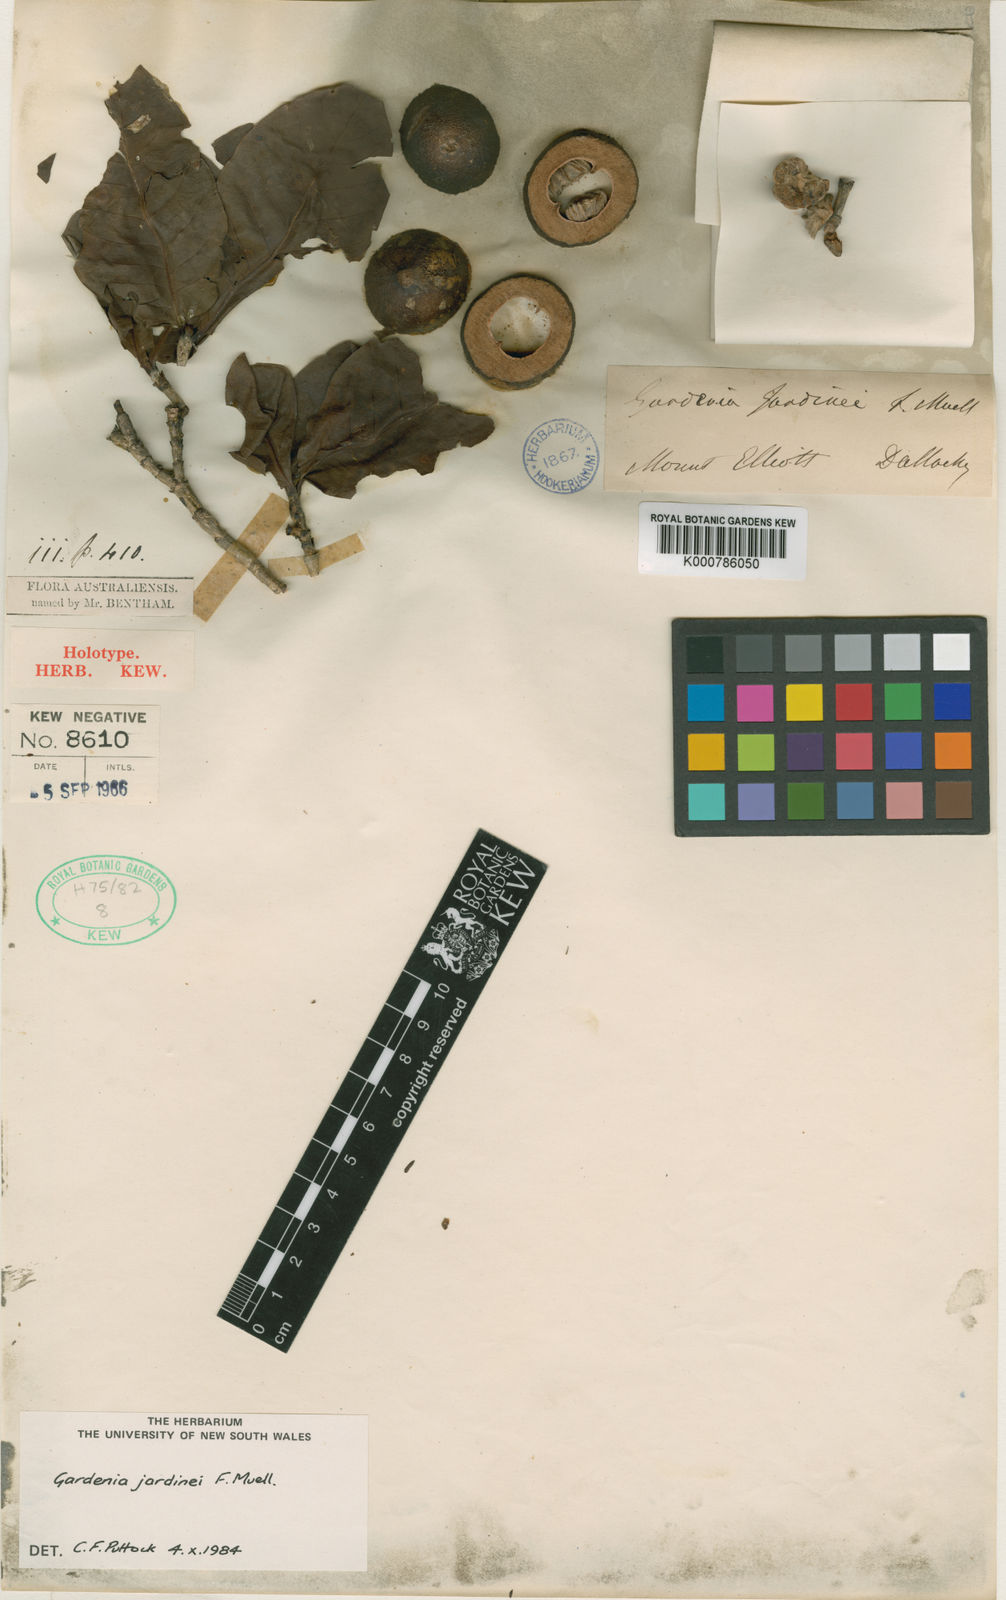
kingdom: Plantae
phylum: Tracheophyta
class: Magnoliopsida
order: Gentianales
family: Rubiaceae
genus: Larsenaikia
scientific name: Larsenaikia jardinei
